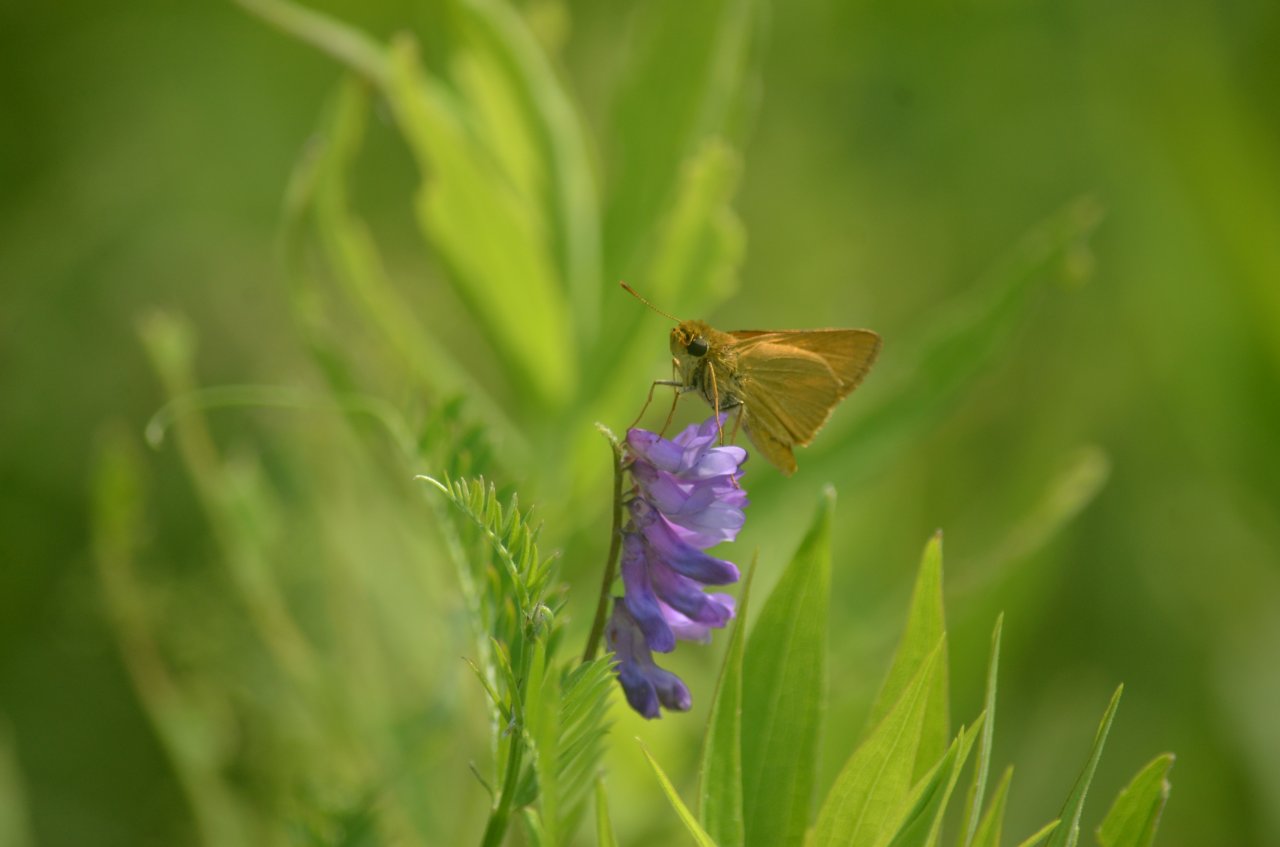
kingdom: Animalia
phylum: Arthropoda
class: Insecta
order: Lepidoptera
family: Hesperiidae
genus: Atrytone
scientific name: Atrytone delaware
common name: Delaware Skipper
